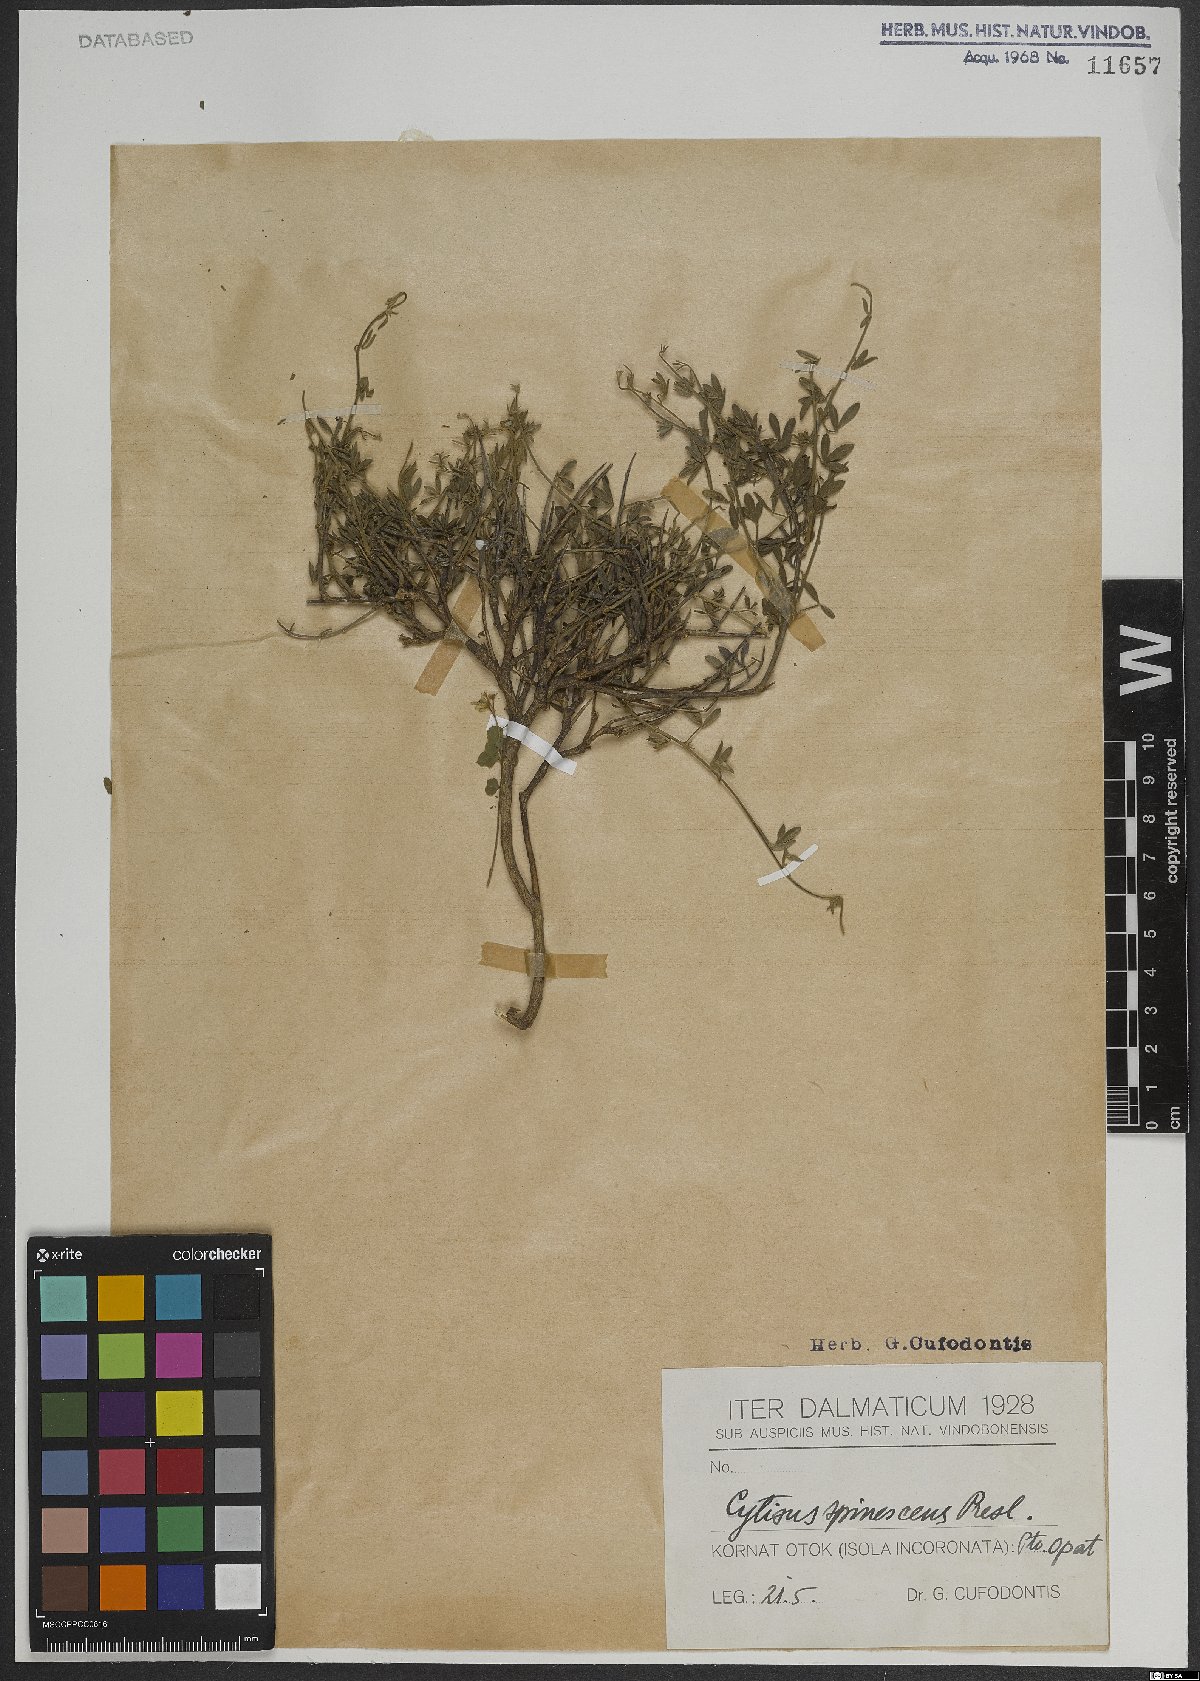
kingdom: Plantae
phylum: Tracheophyta
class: Magnoliopsida
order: Fabales
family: Fabaceae
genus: Chamaecytisus
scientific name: Chamaecytisus spinescens
